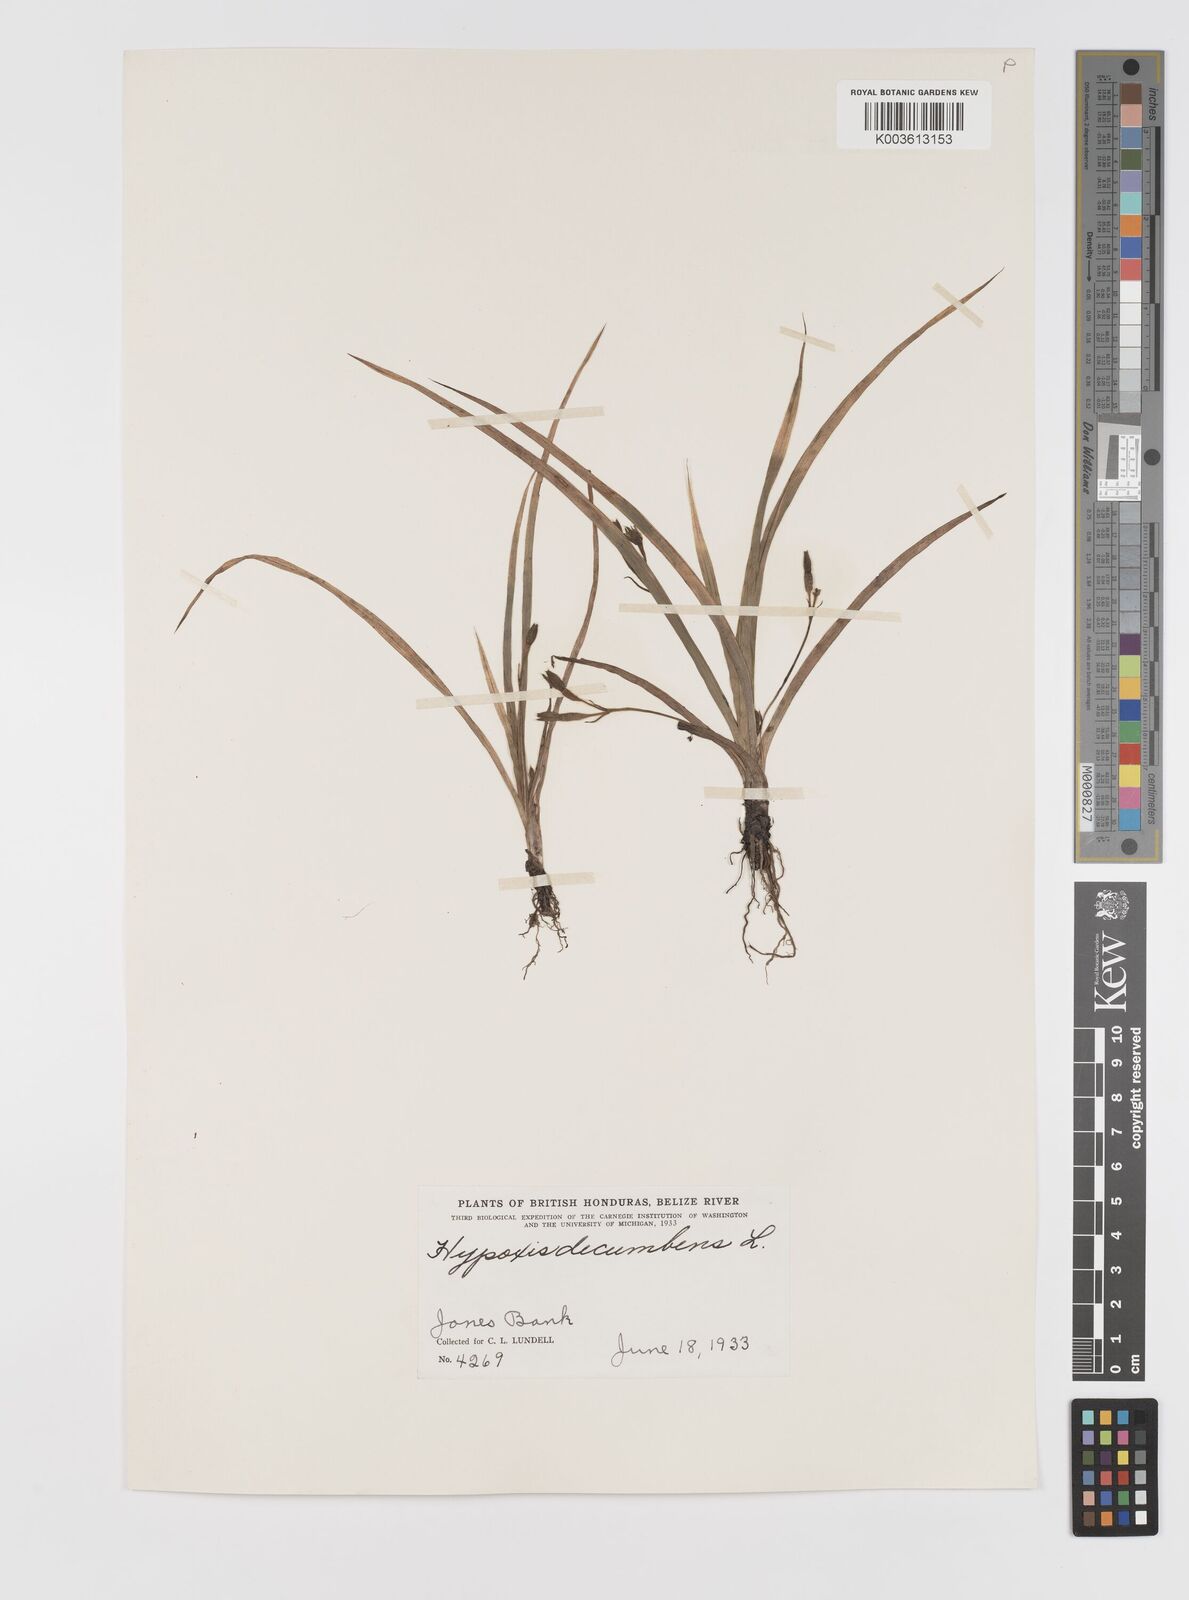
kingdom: Plantae
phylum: Tracheophyta
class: Liliopsida
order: Asparagales
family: Hypoxidaceae
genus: Hypoxis
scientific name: Hypoxis decumbens
